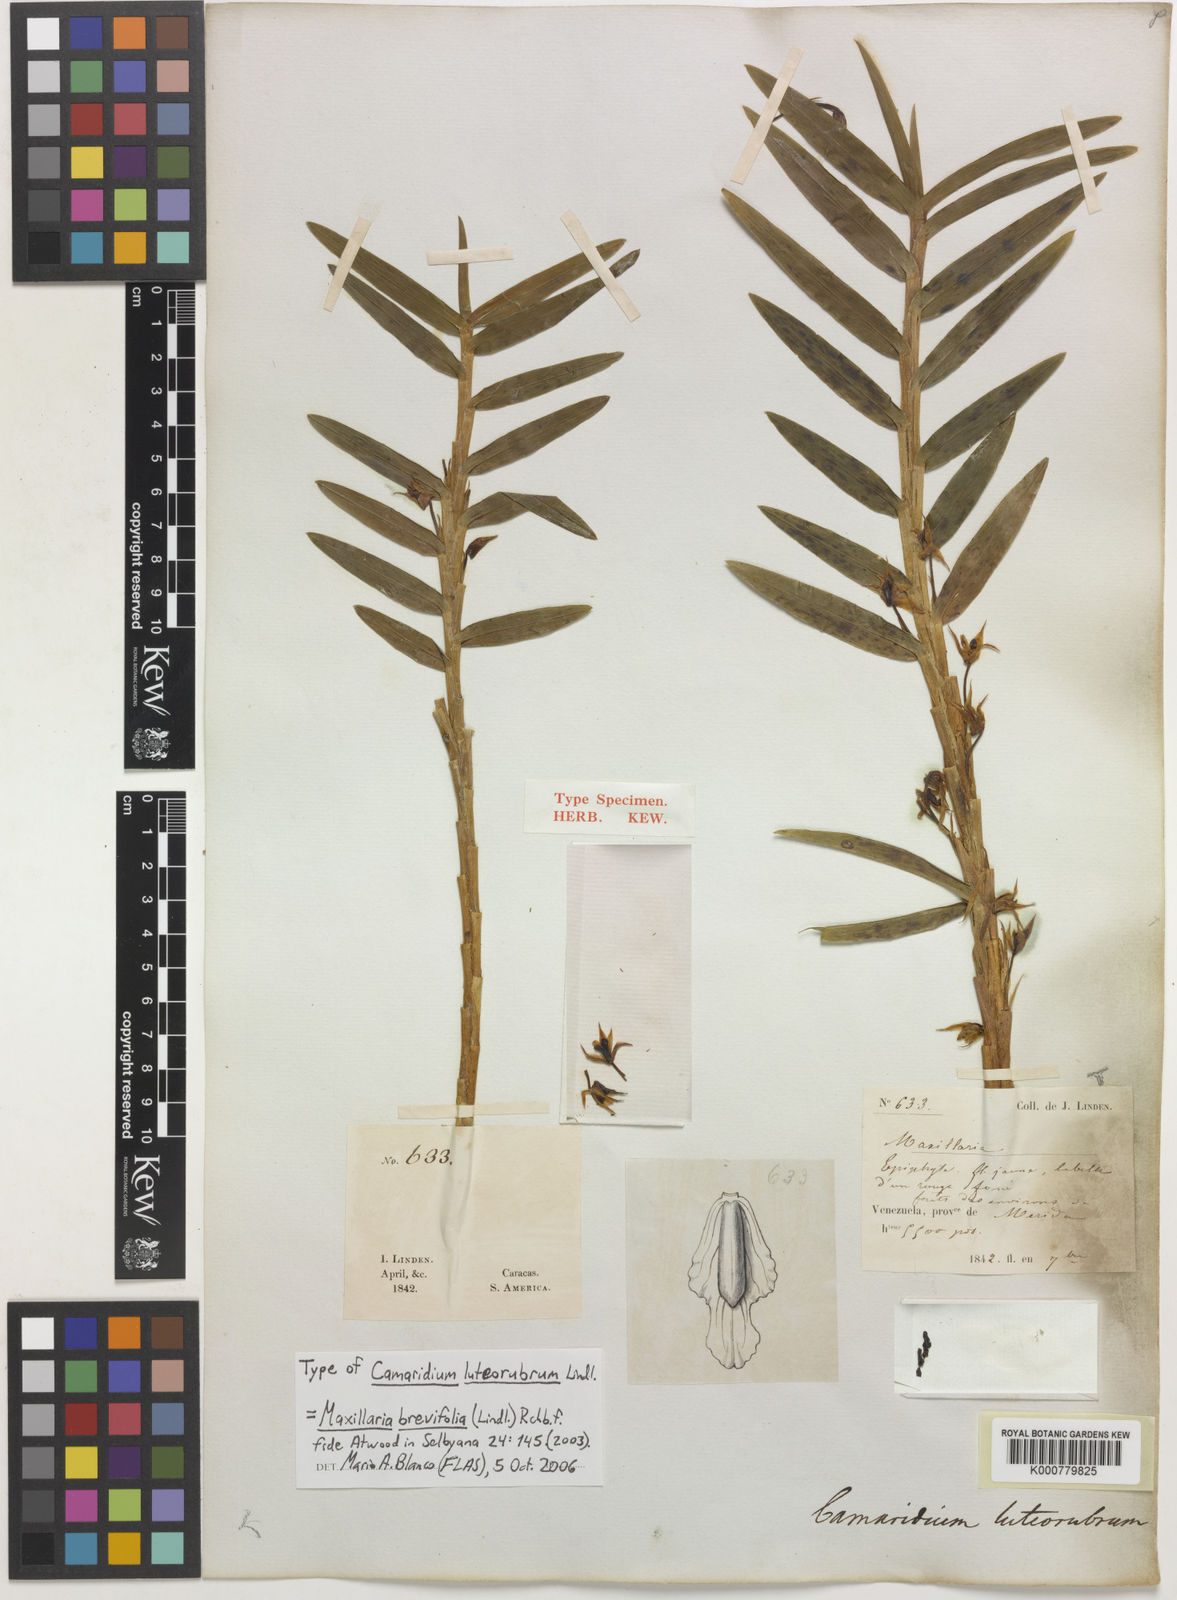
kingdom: Plantae
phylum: Tracheophyta
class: Liliopsida
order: Asparagales
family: Orchidaceae
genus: Maxillaria
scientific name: Maxillaria brevifolia
